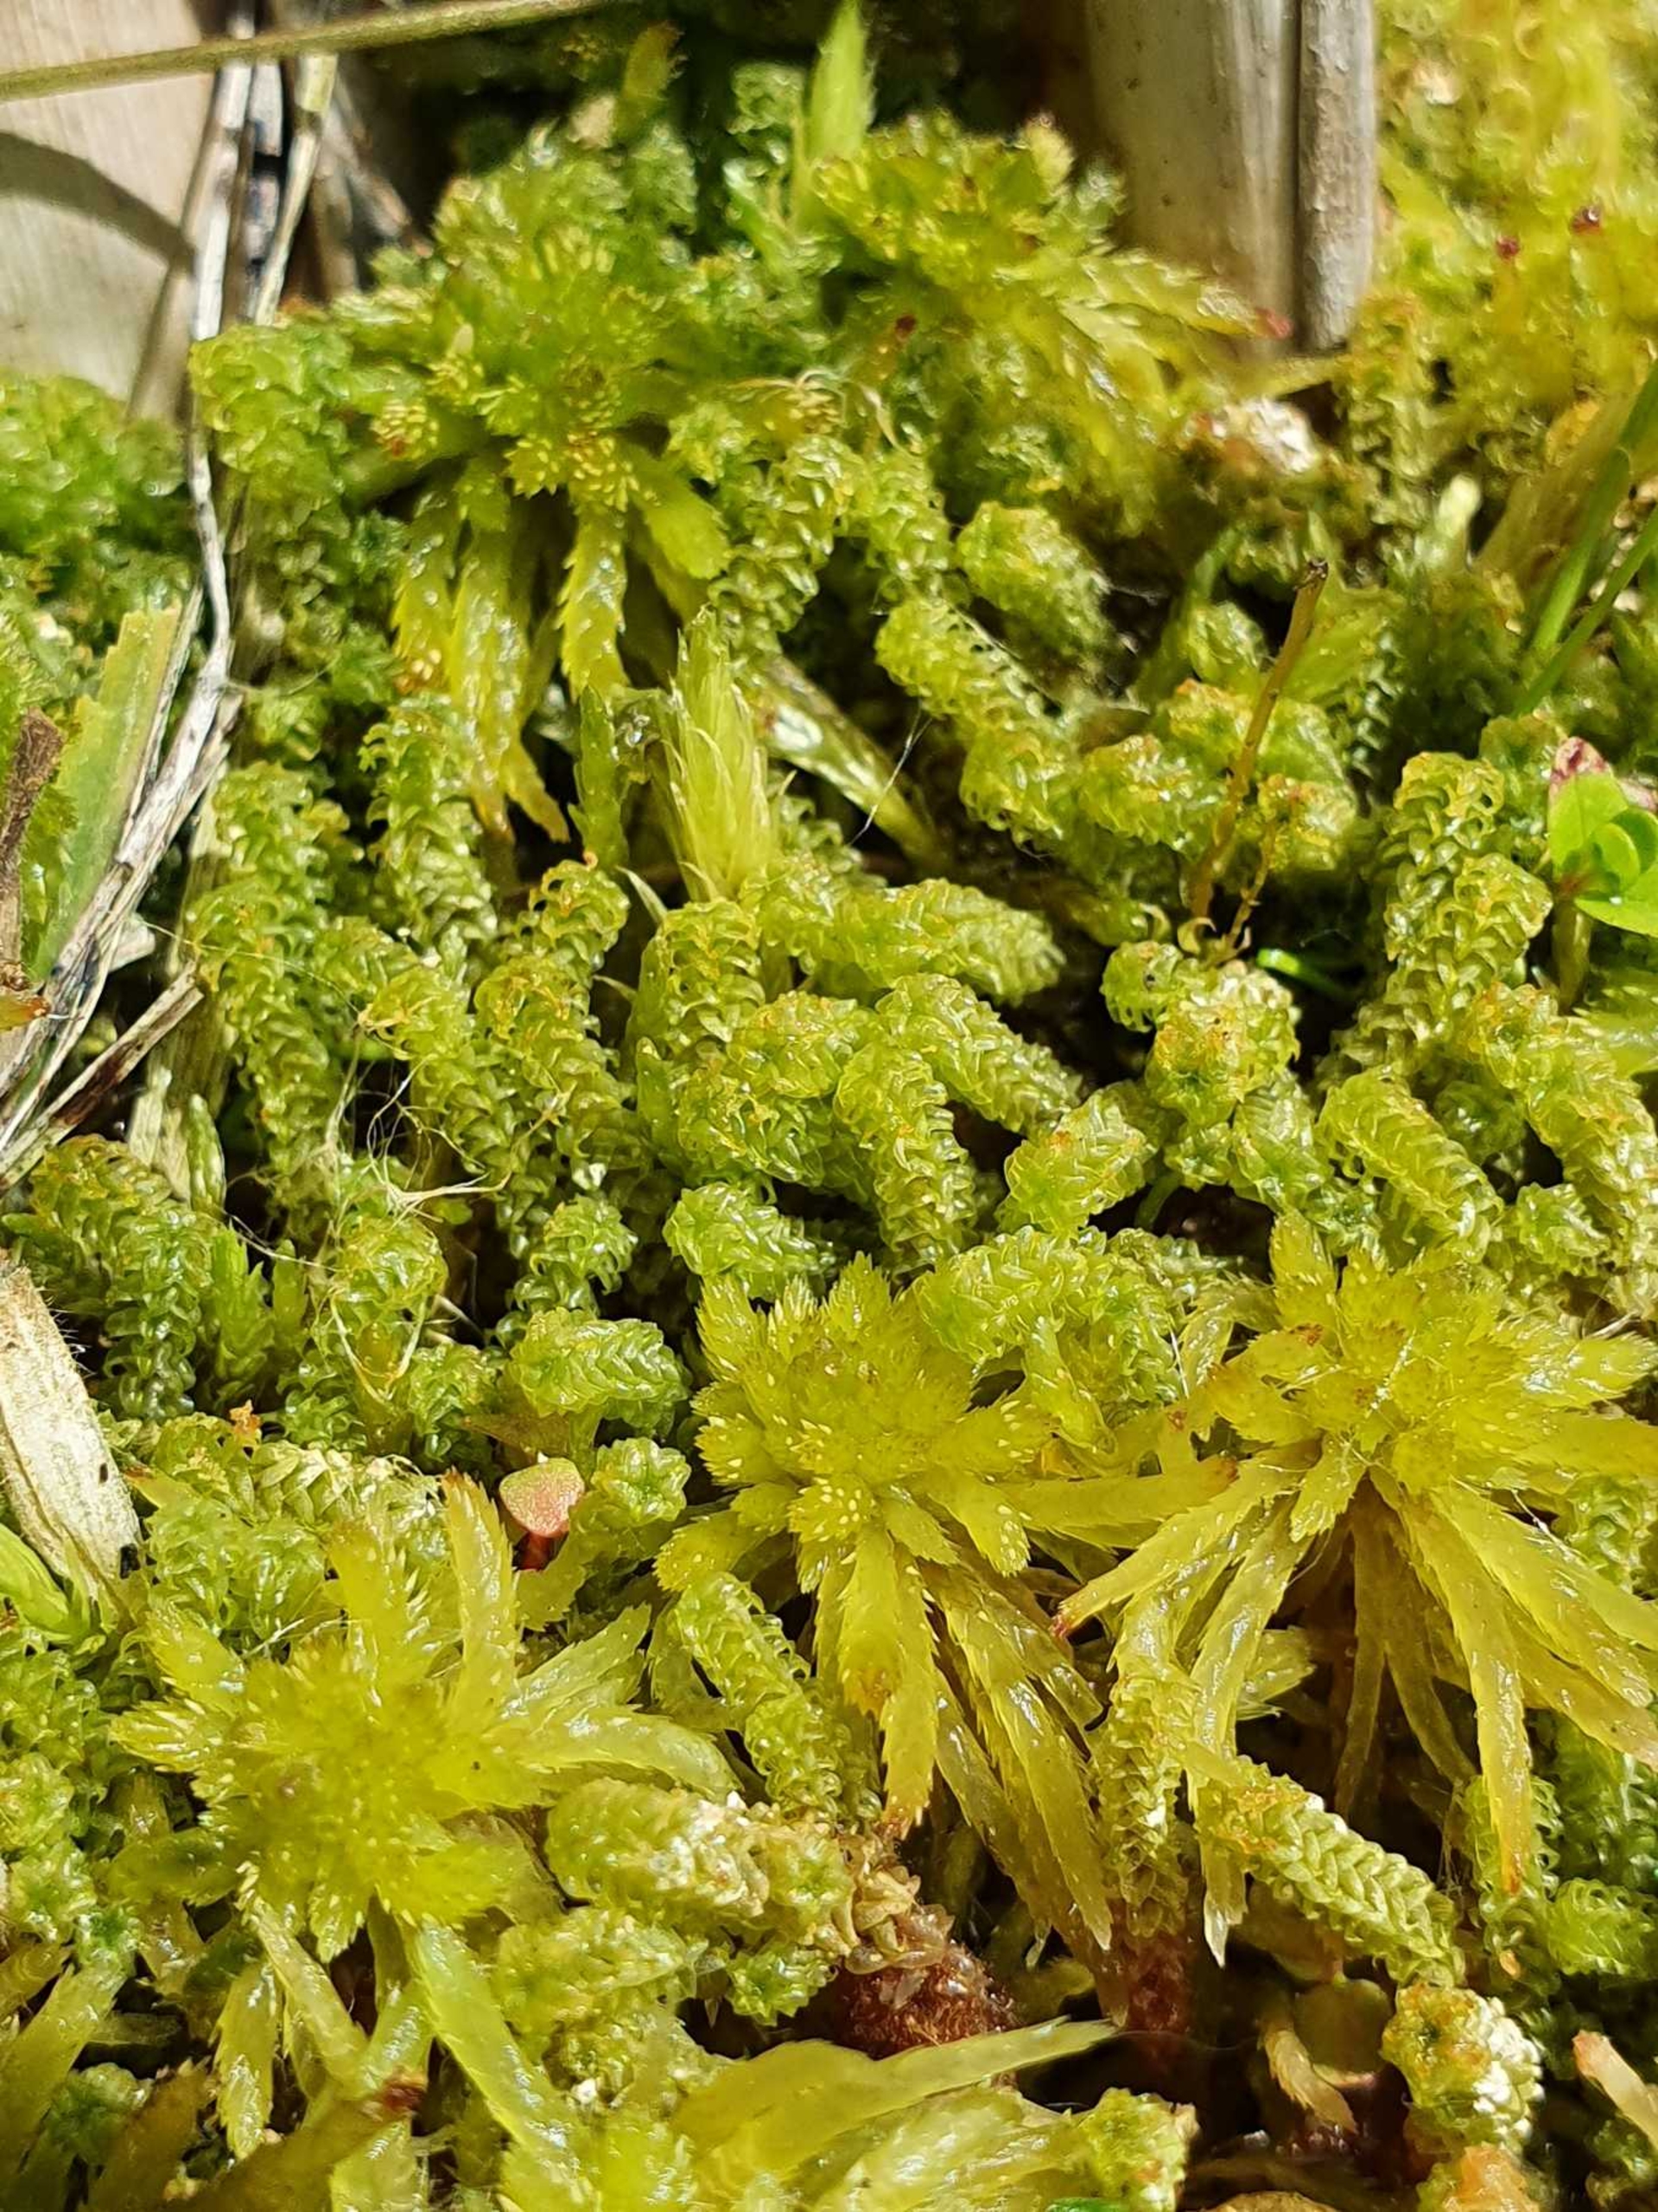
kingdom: Plantae
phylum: Bryophyta
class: Bryopsida
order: Splachnales
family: Meesiaceae
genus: Paludella
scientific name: Paludella squarrosa
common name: Almindelig piberensermos
